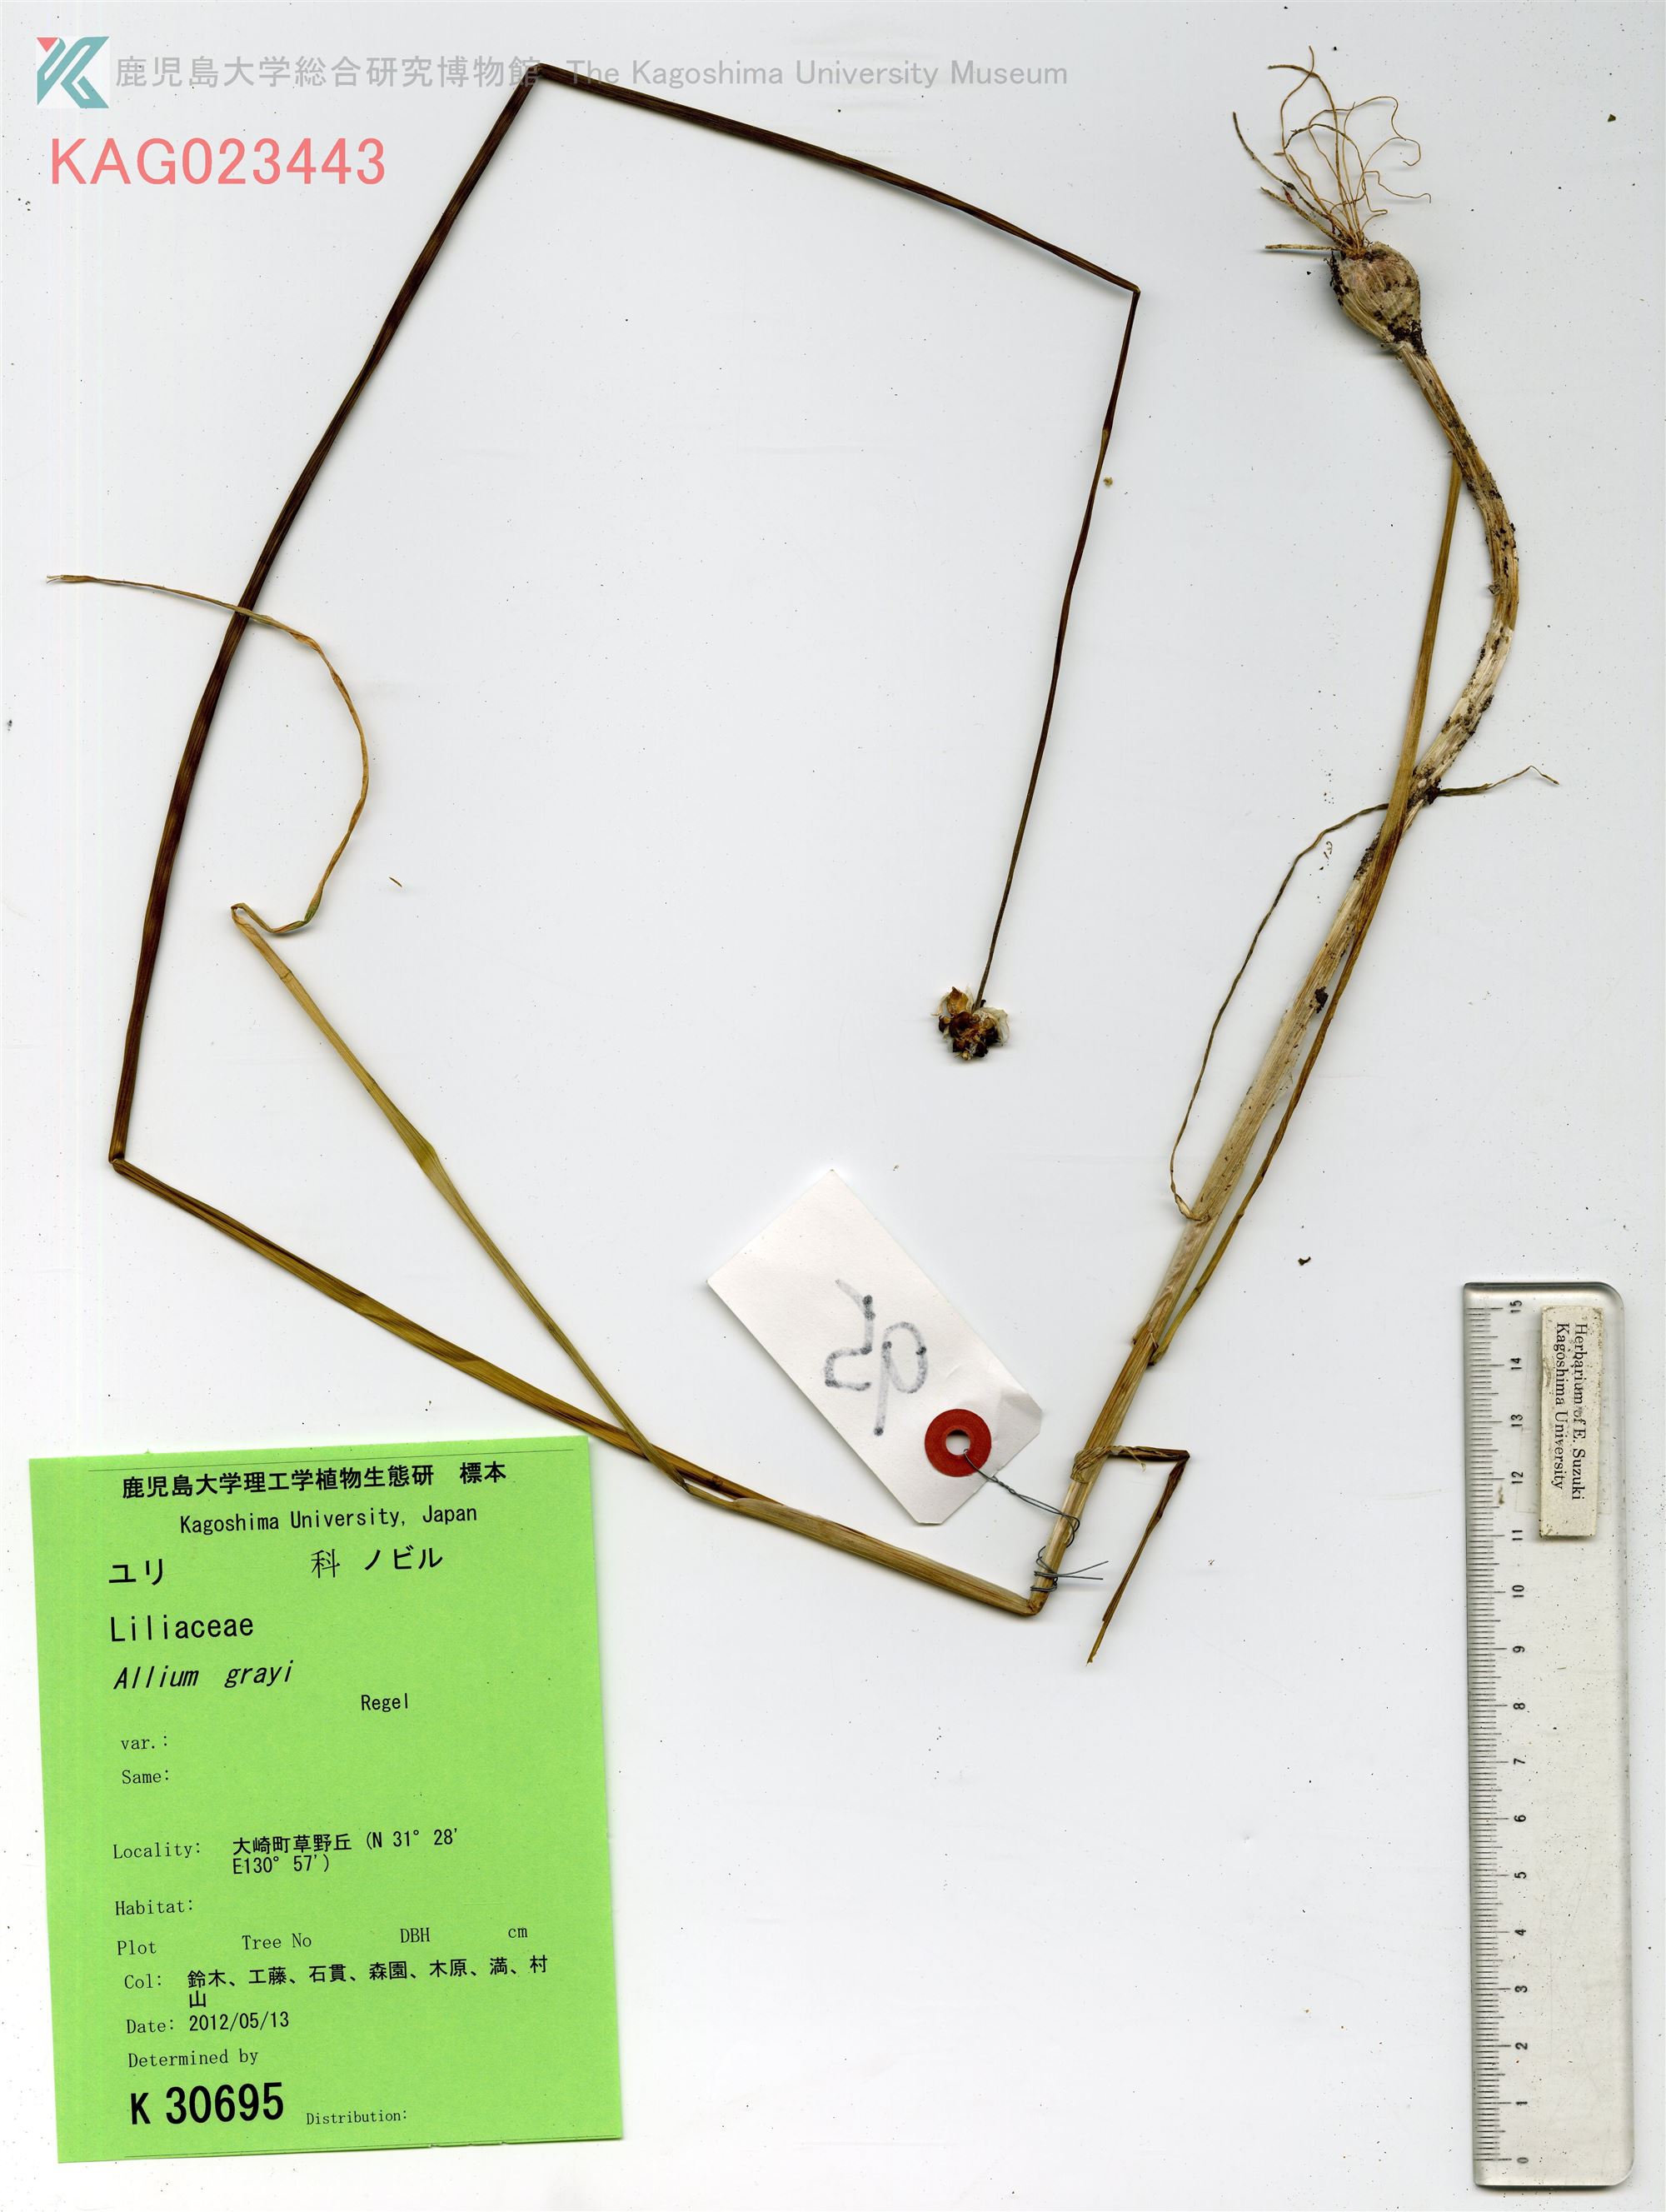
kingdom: Plantae
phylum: Tracheophyta
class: Liliopsida
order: Asparagales
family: Amaryllidaceae
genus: Allium
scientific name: Allium macrostemon
